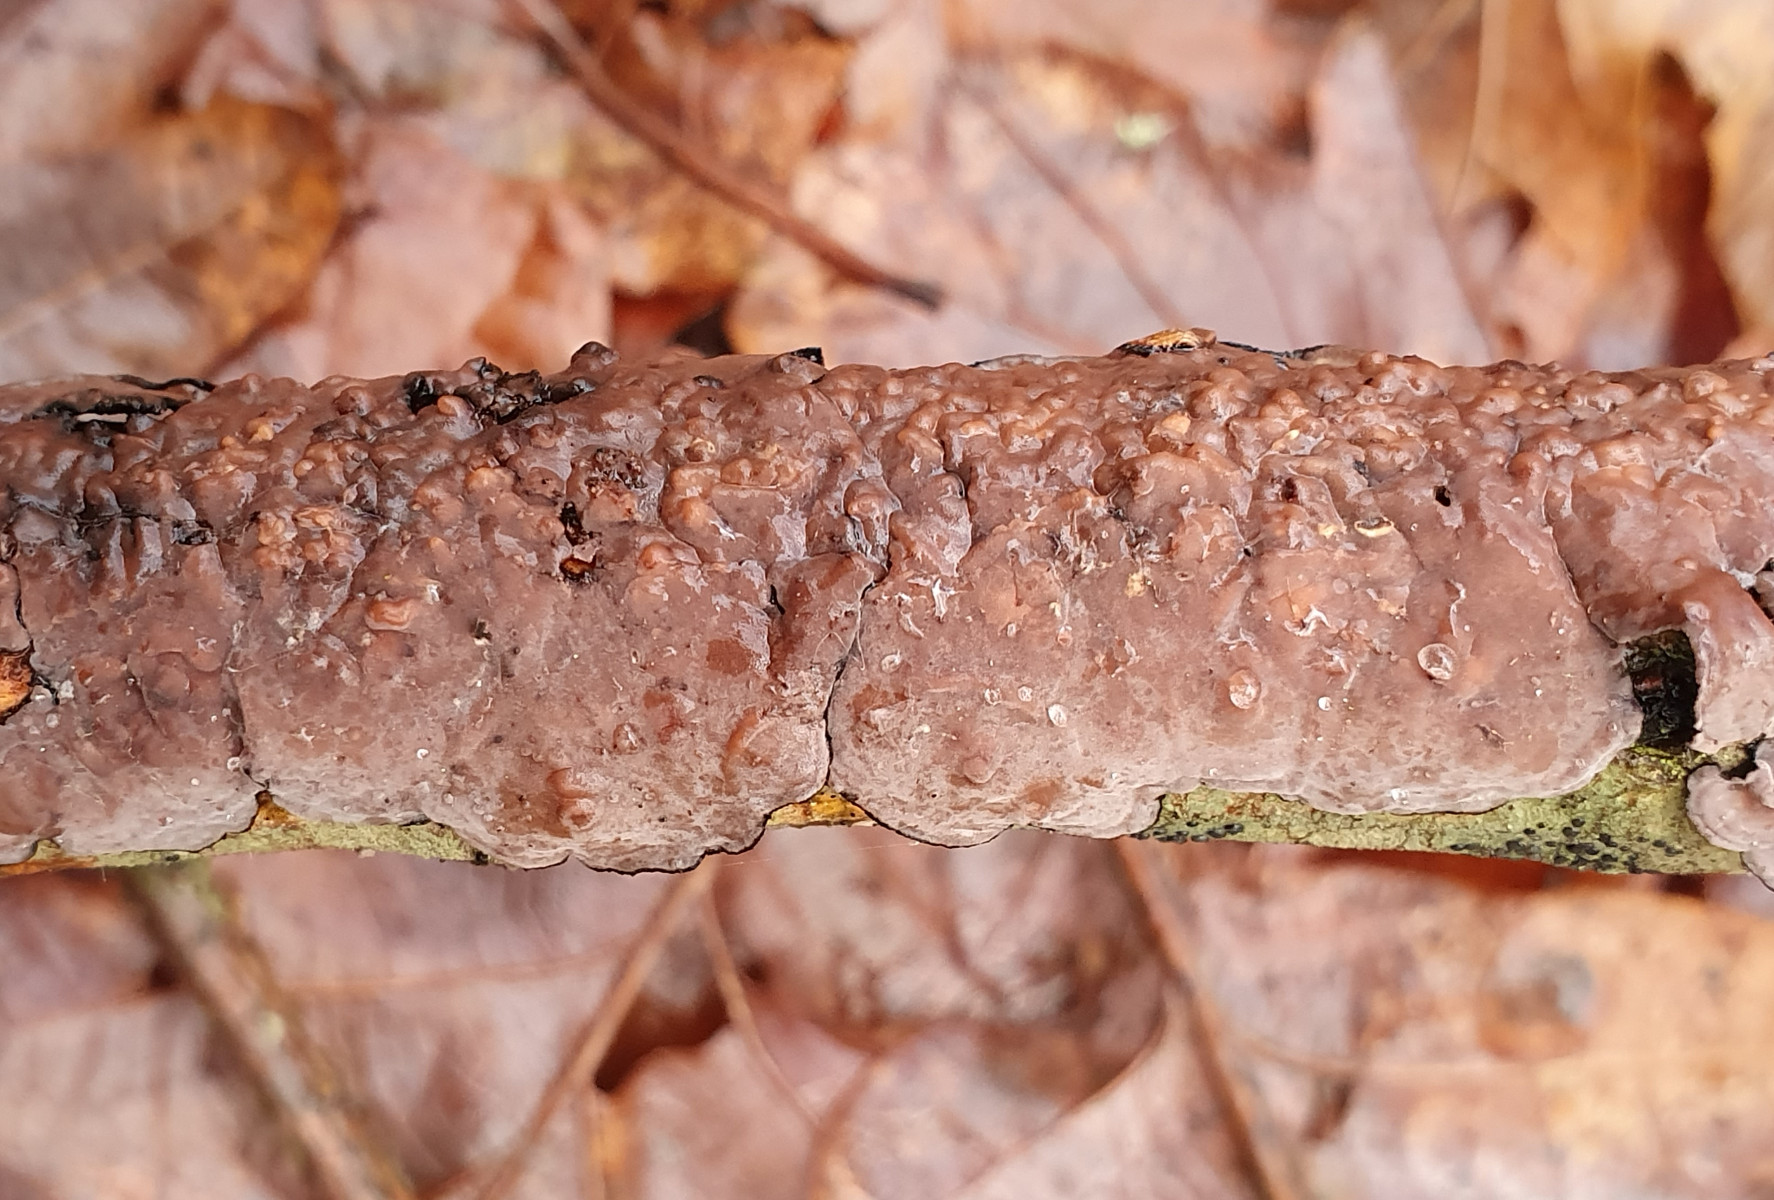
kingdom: Fungi
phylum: Basidiomycota
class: Agaricomycetes
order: Russulales
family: Peniophoraceae
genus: Peniophora
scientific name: Peniophora quercina
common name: ege-voksskind
